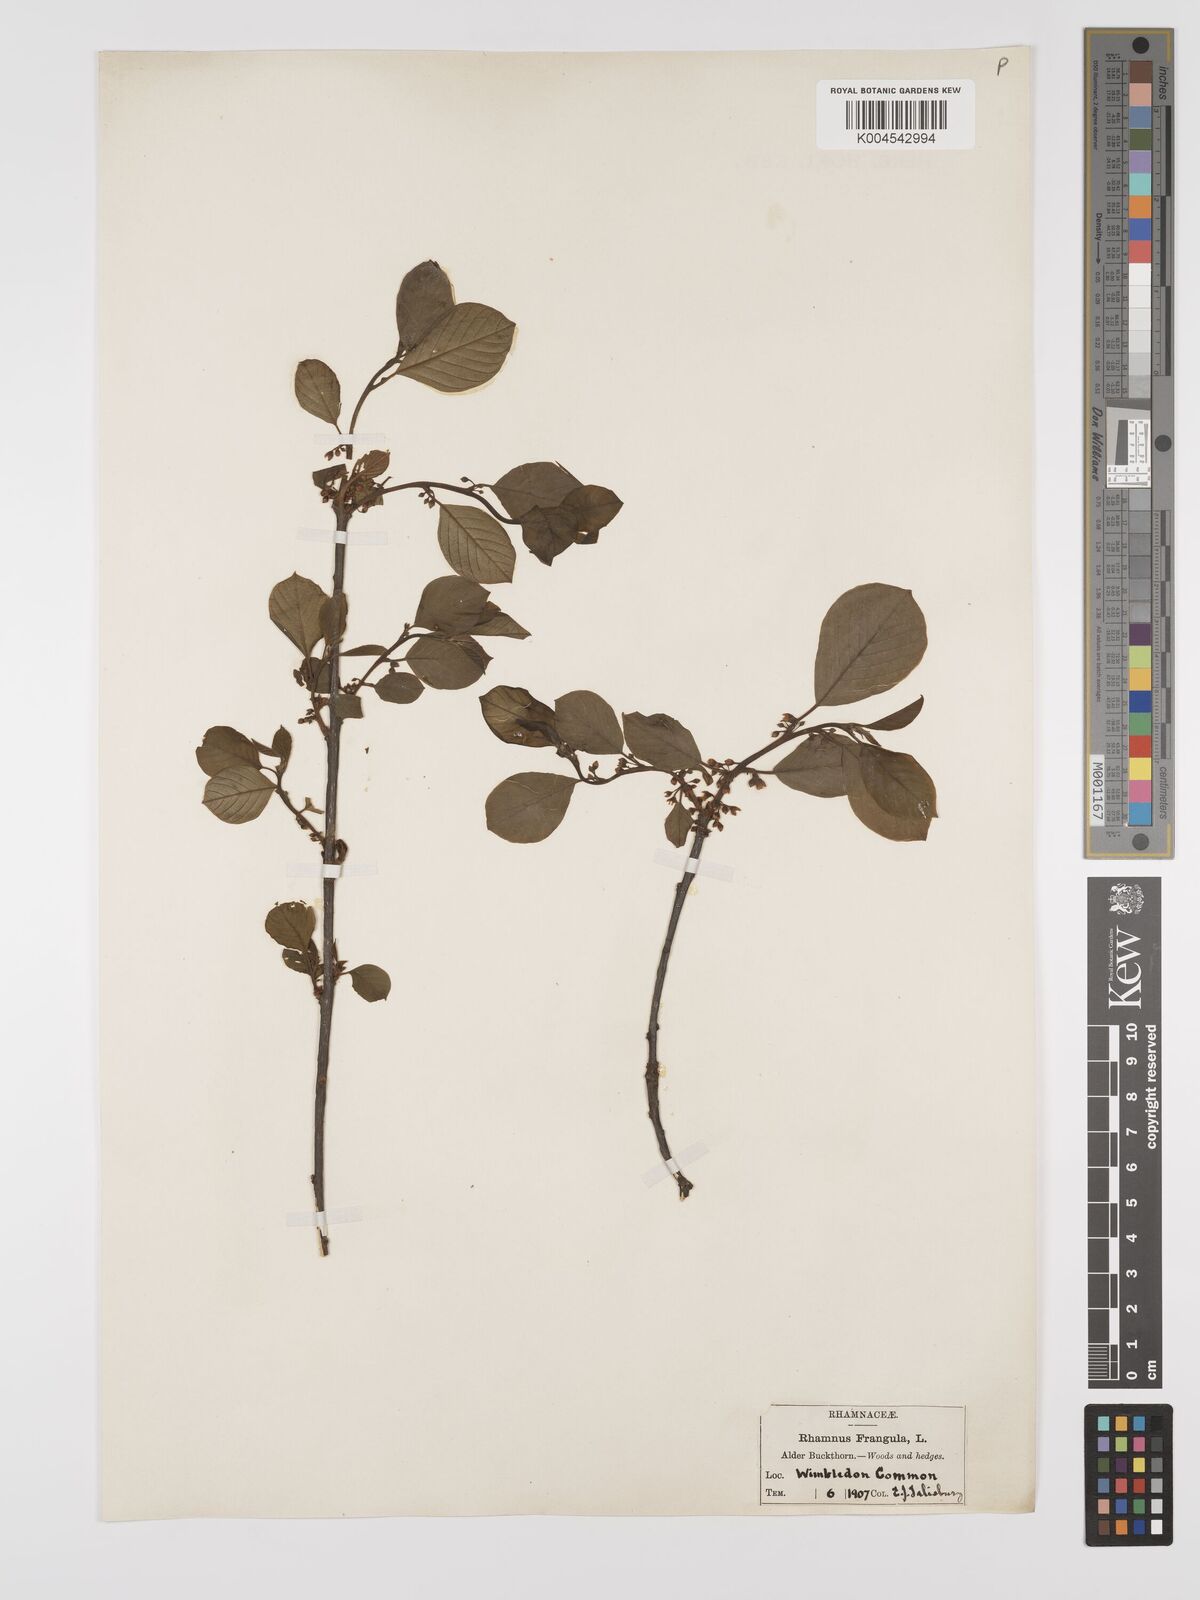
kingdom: Plantae
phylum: Tracheophyta
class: Magnoliopsida
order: Rosales
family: Rhamnaceae
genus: Frangula
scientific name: Frangula alnus
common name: Alder buckthorn
